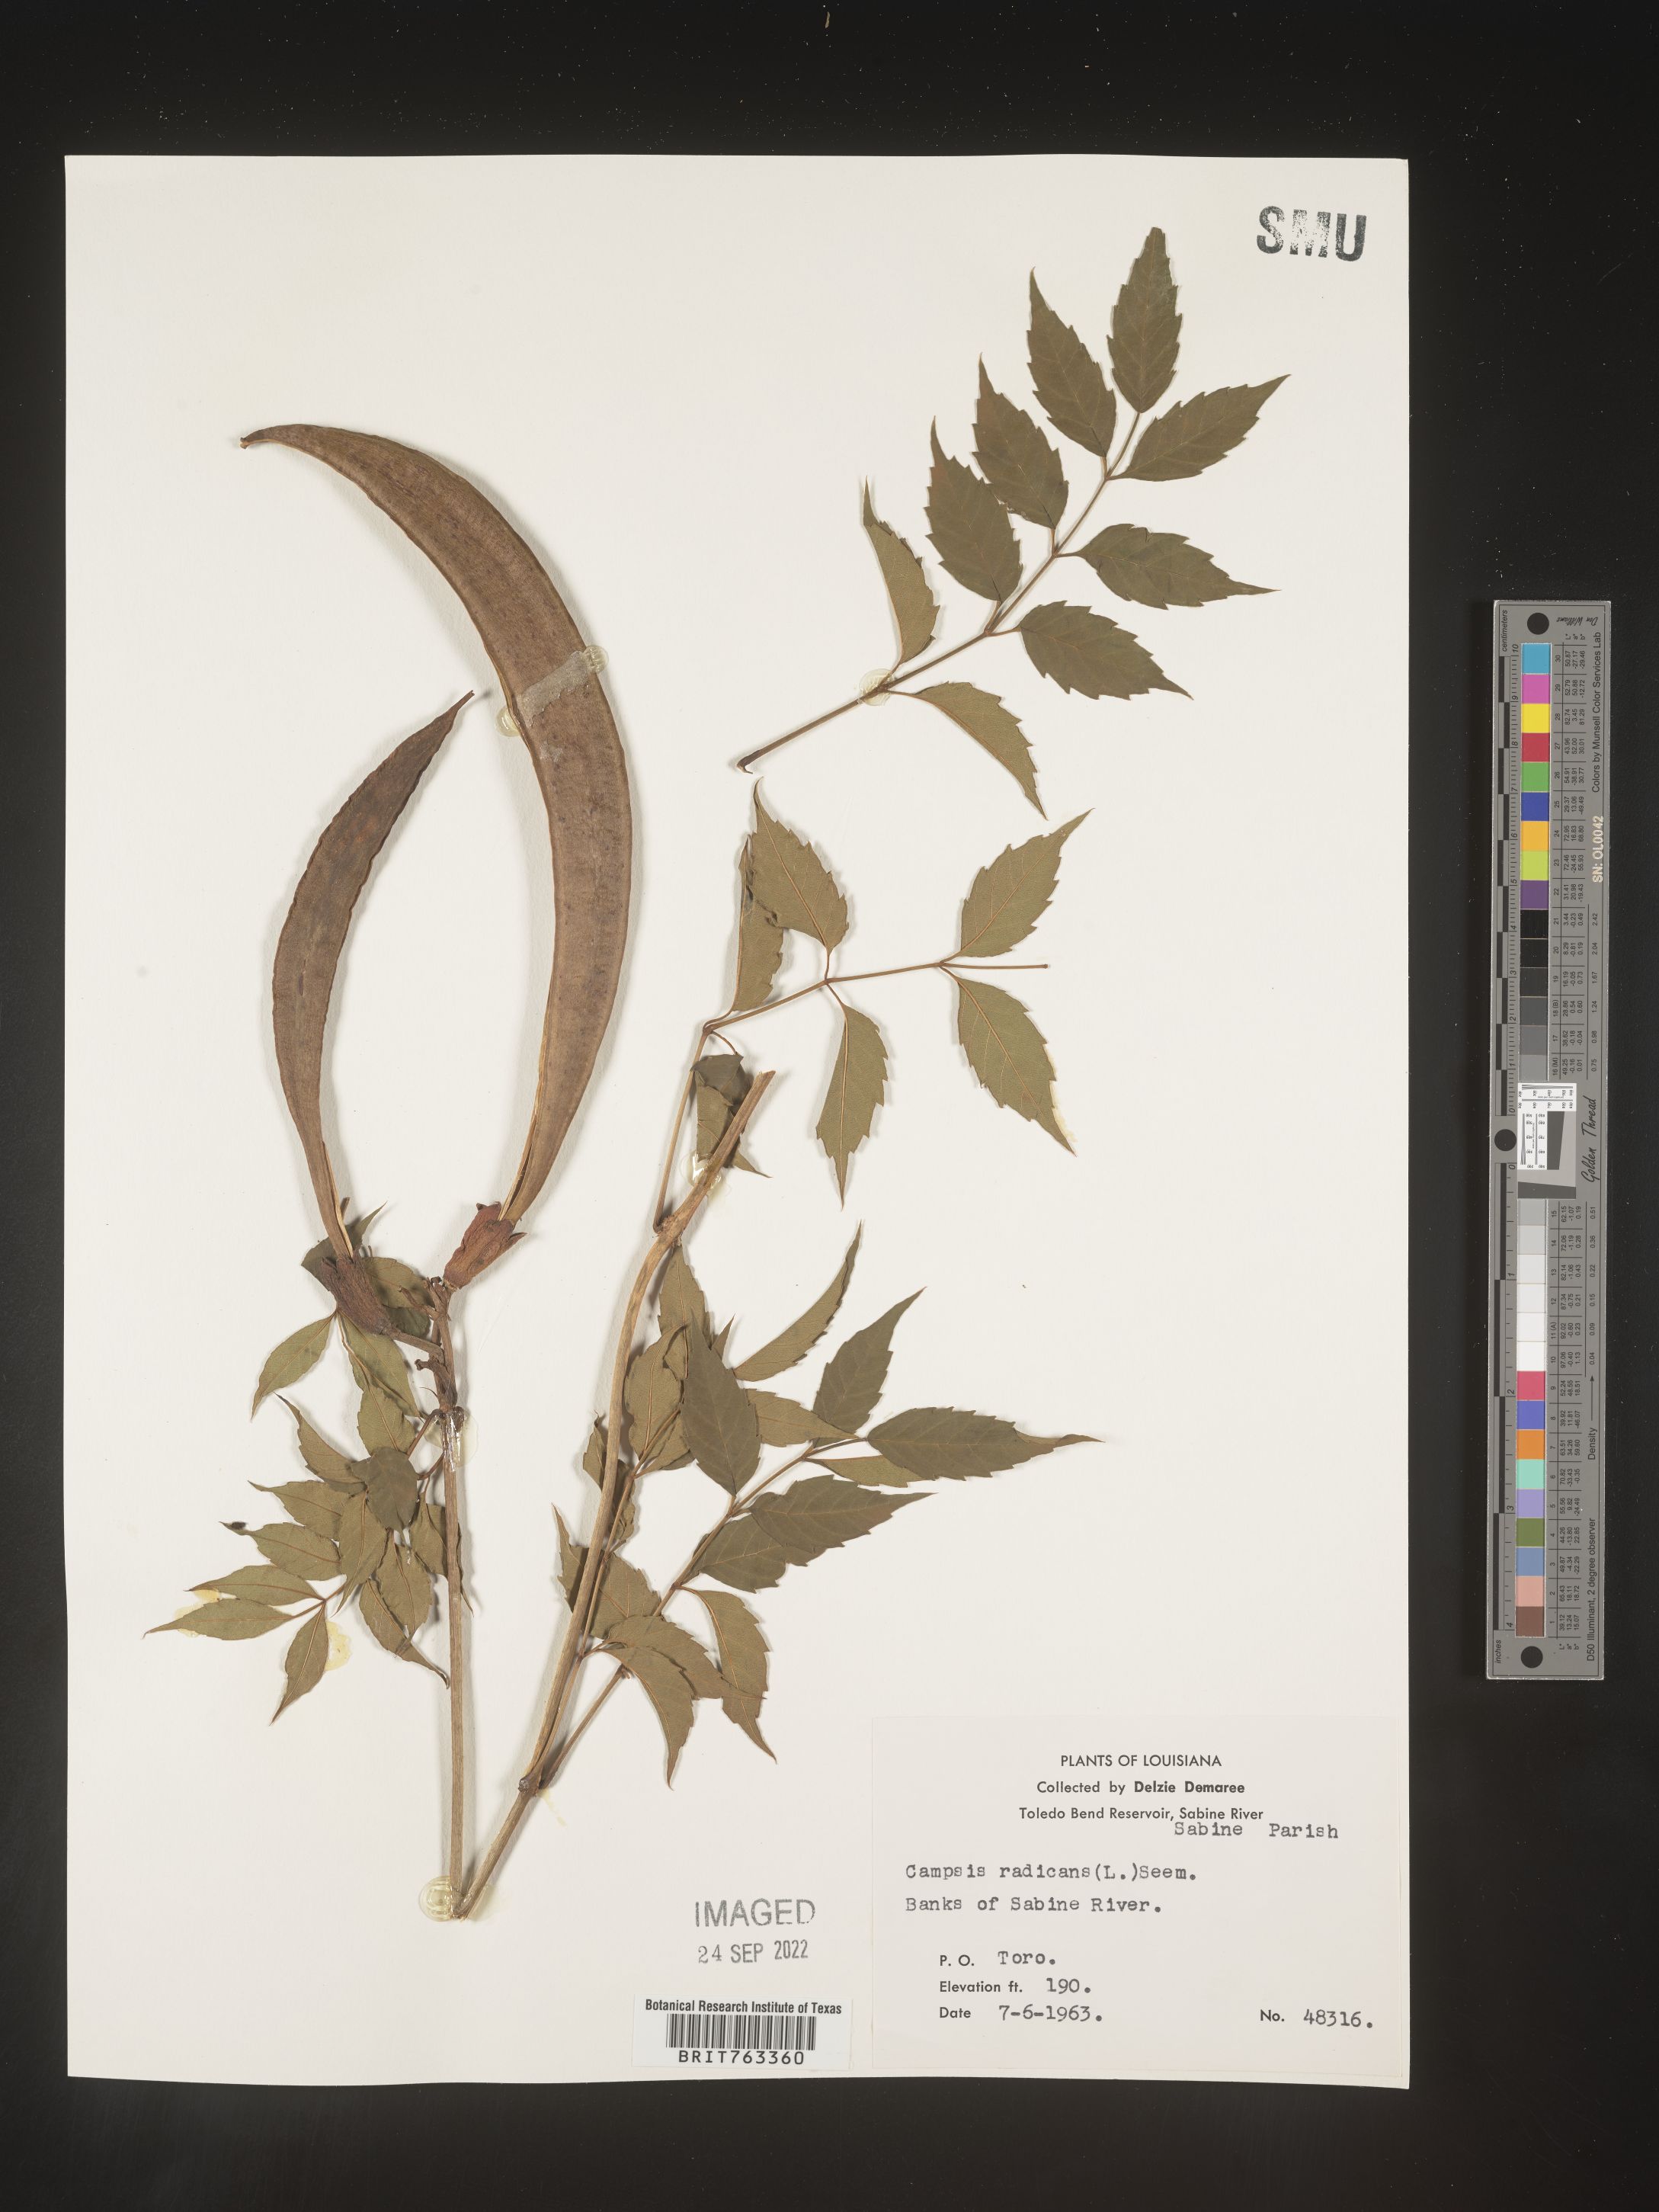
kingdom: Plantae
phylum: Tracheophyta
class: Magnoliopsida
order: Lamiales
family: Bignoniaceae
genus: Campsis
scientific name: Campsis radicans
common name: Trumpet-creeper
